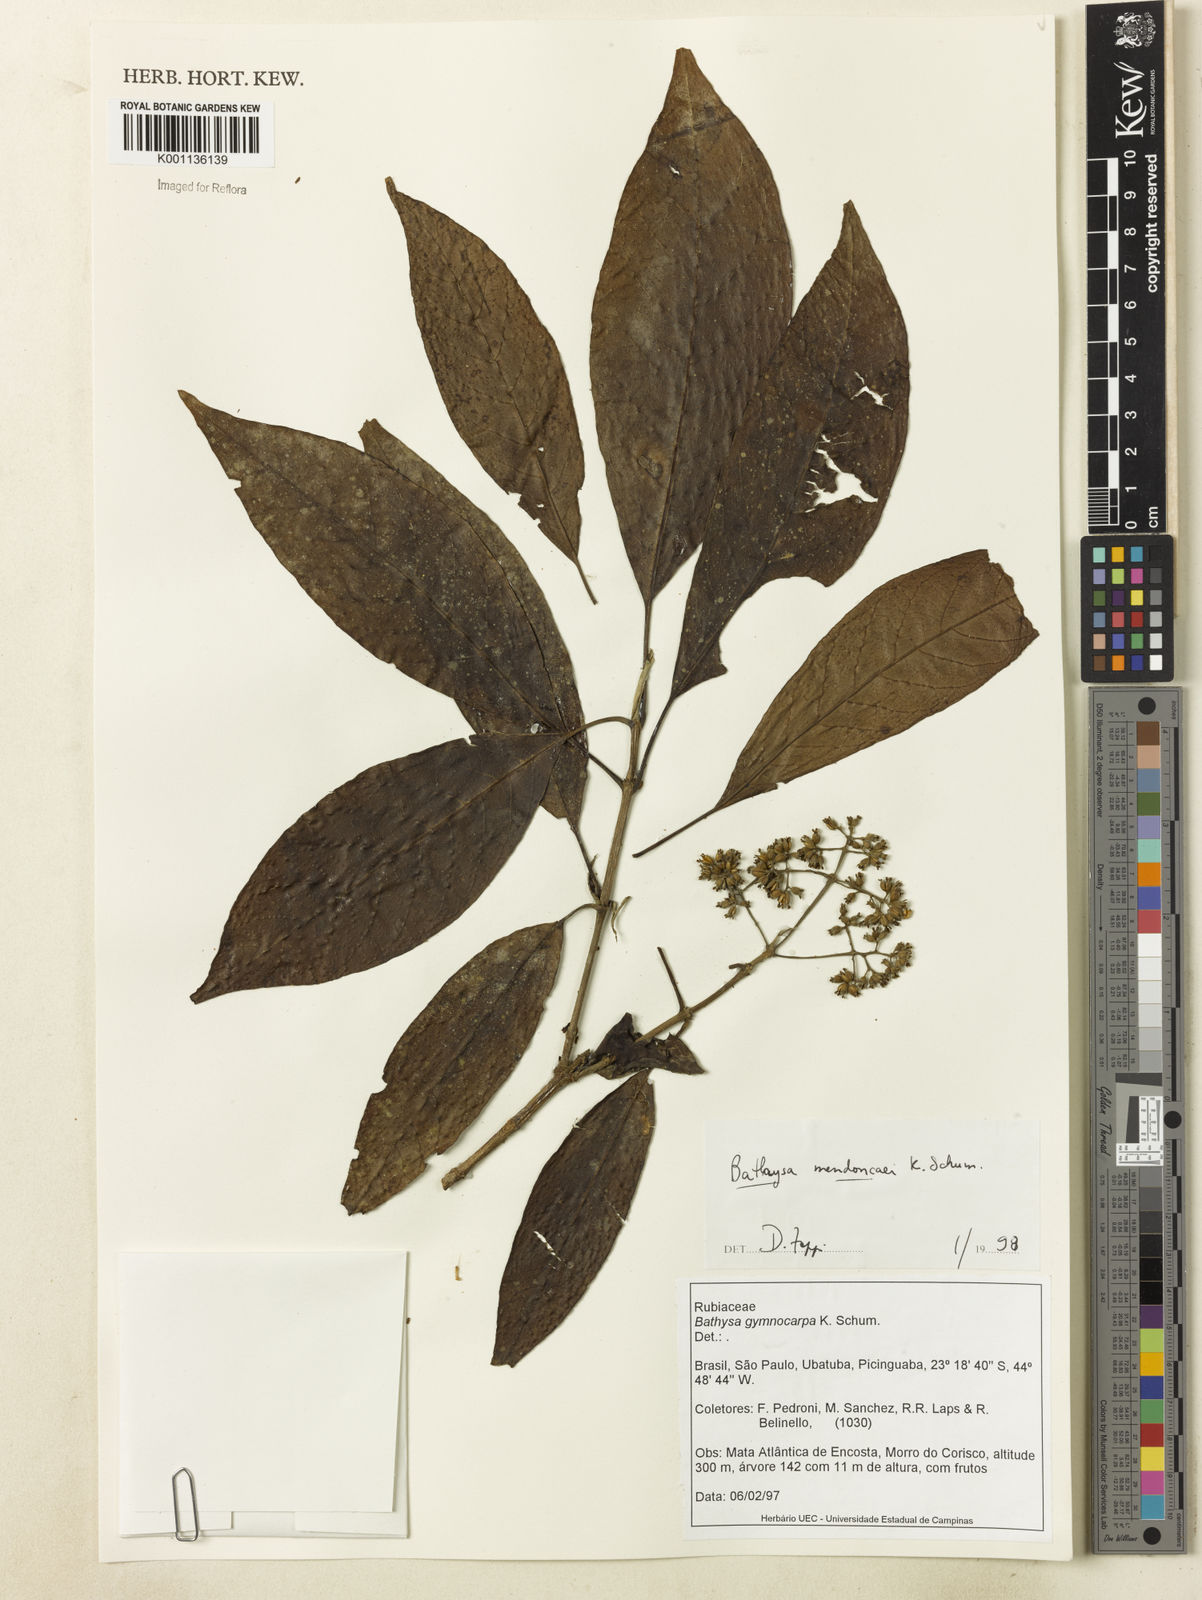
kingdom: Plantae
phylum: Tracheophyta
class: Magnoliopsida
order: Gentianales
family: Rubiaceae
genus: Bathysa
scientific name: Bathysa
